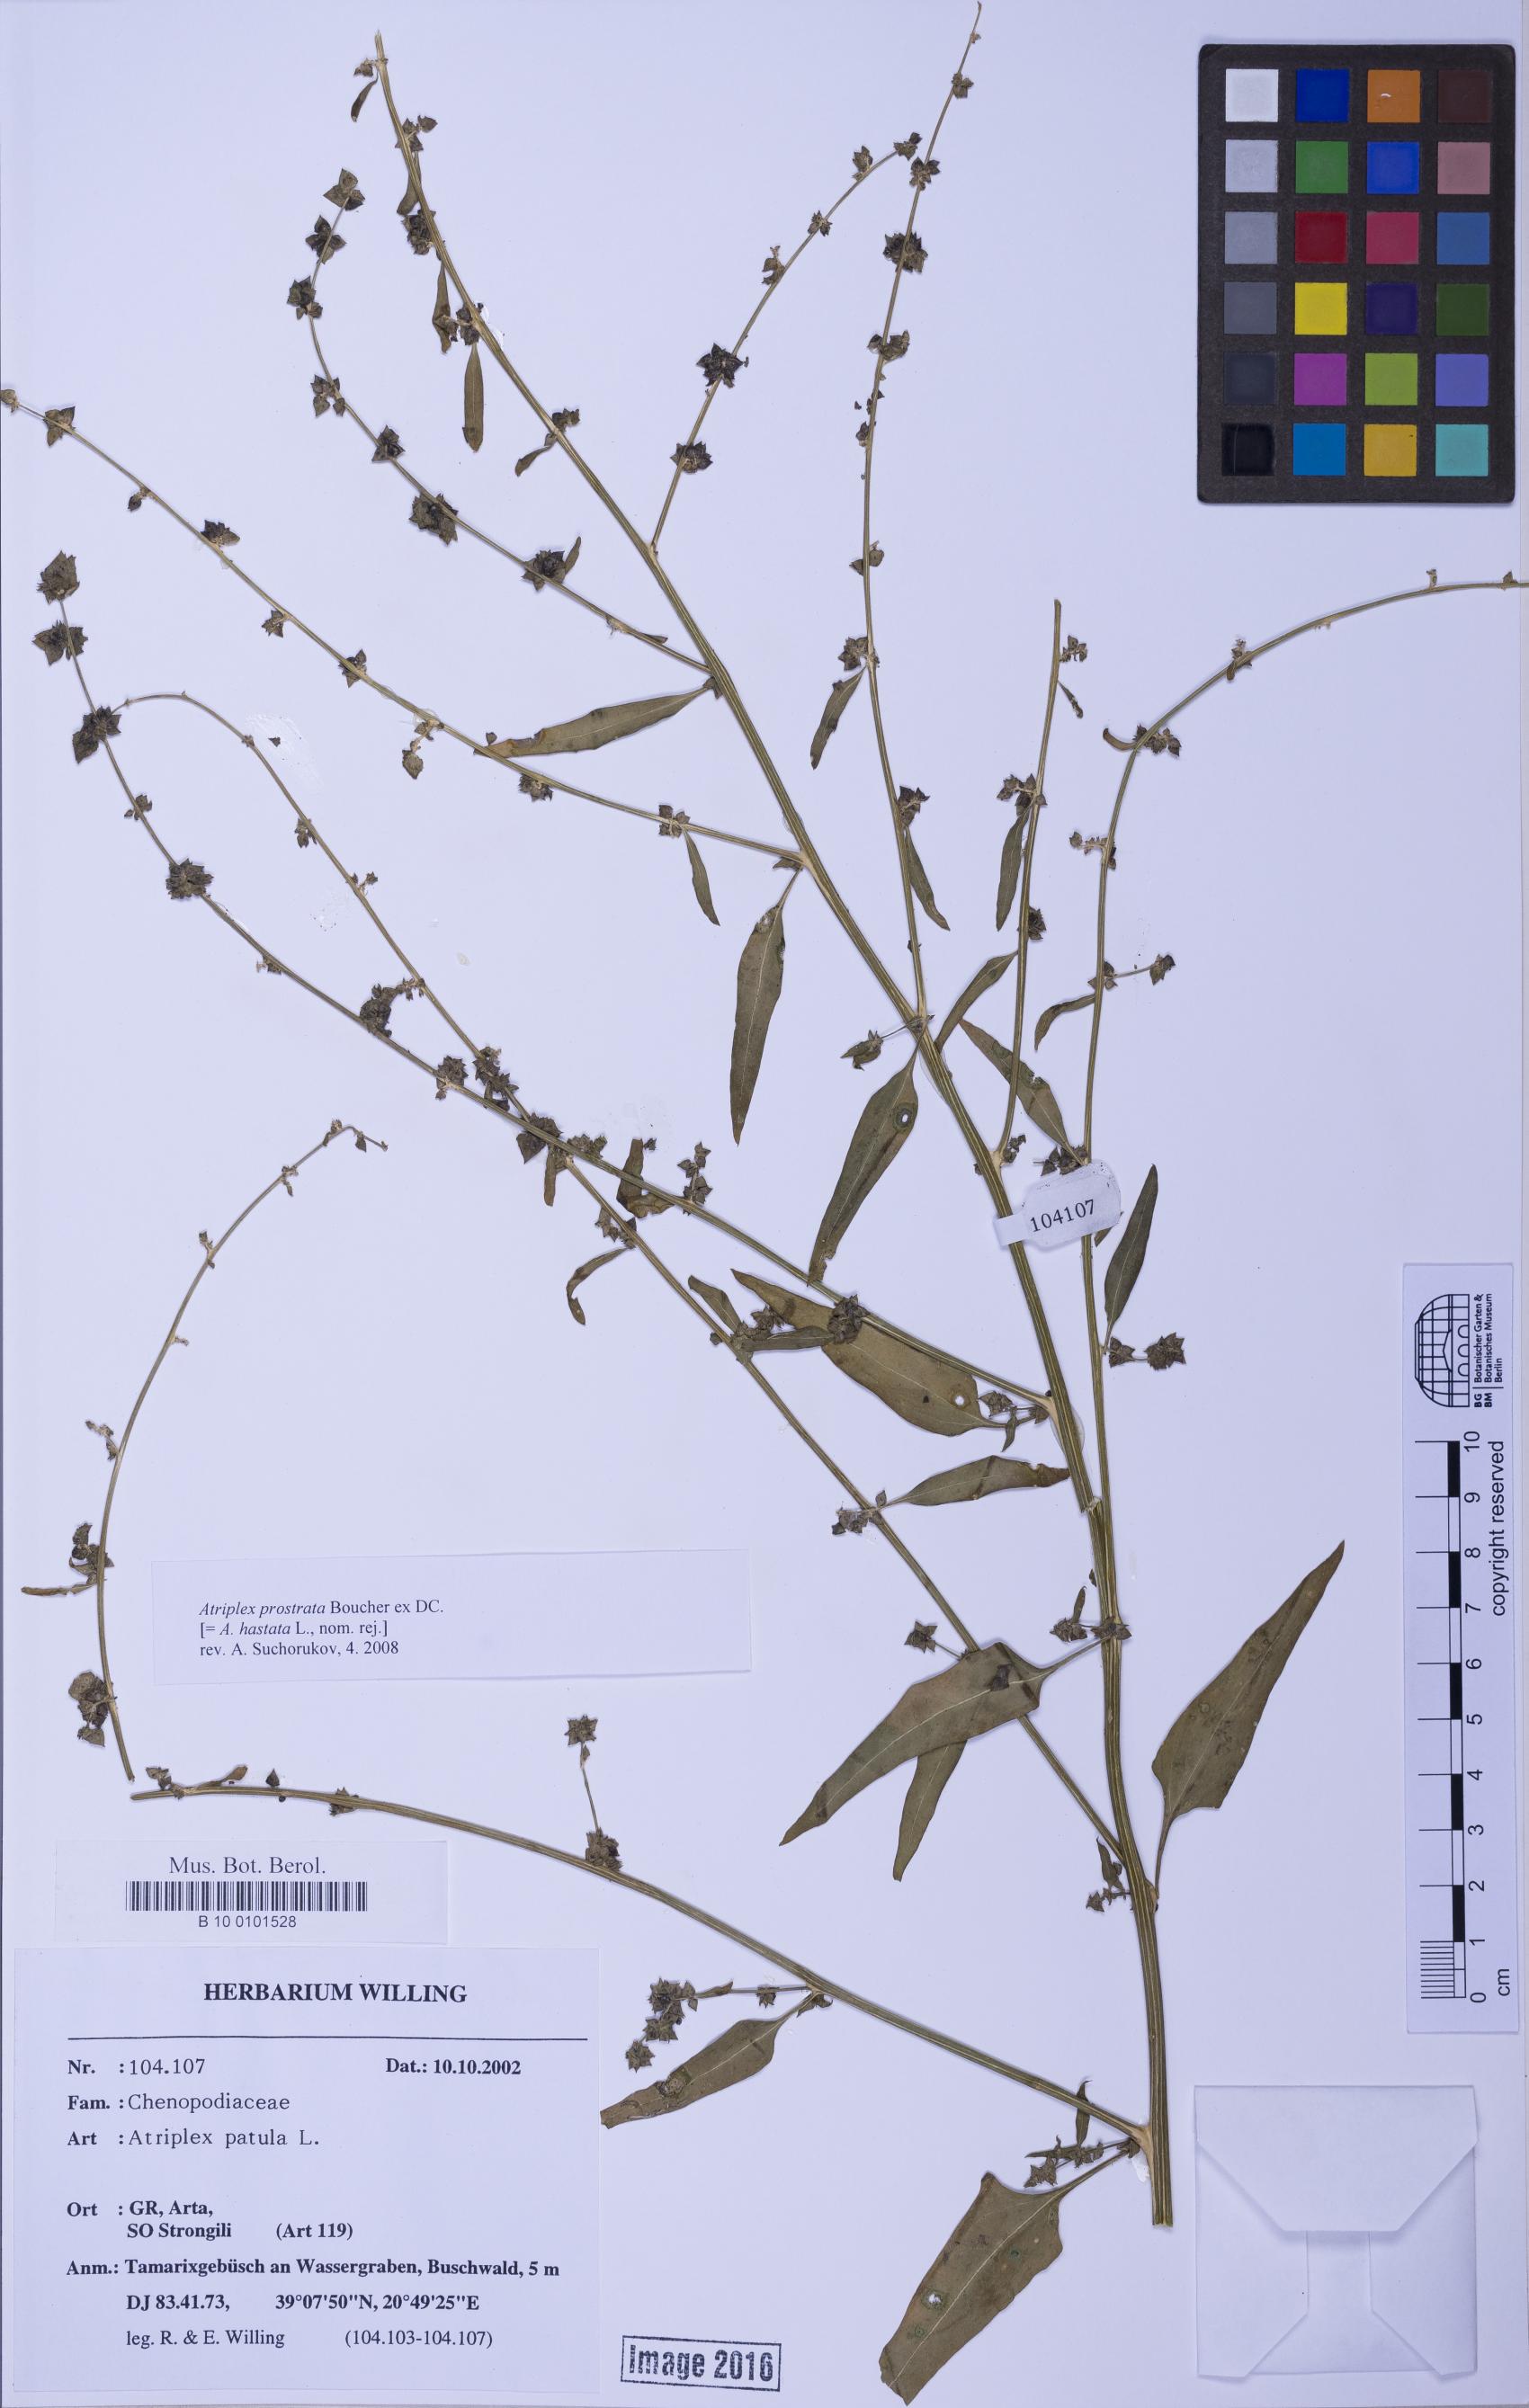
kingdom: Plantae
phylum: Tracheophyta
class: Magnoliopsida
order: Caryophyllales
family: Amaranthaceae
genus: Atriplex
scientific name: Atriplex prostrata
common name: Spear-leaved orache
